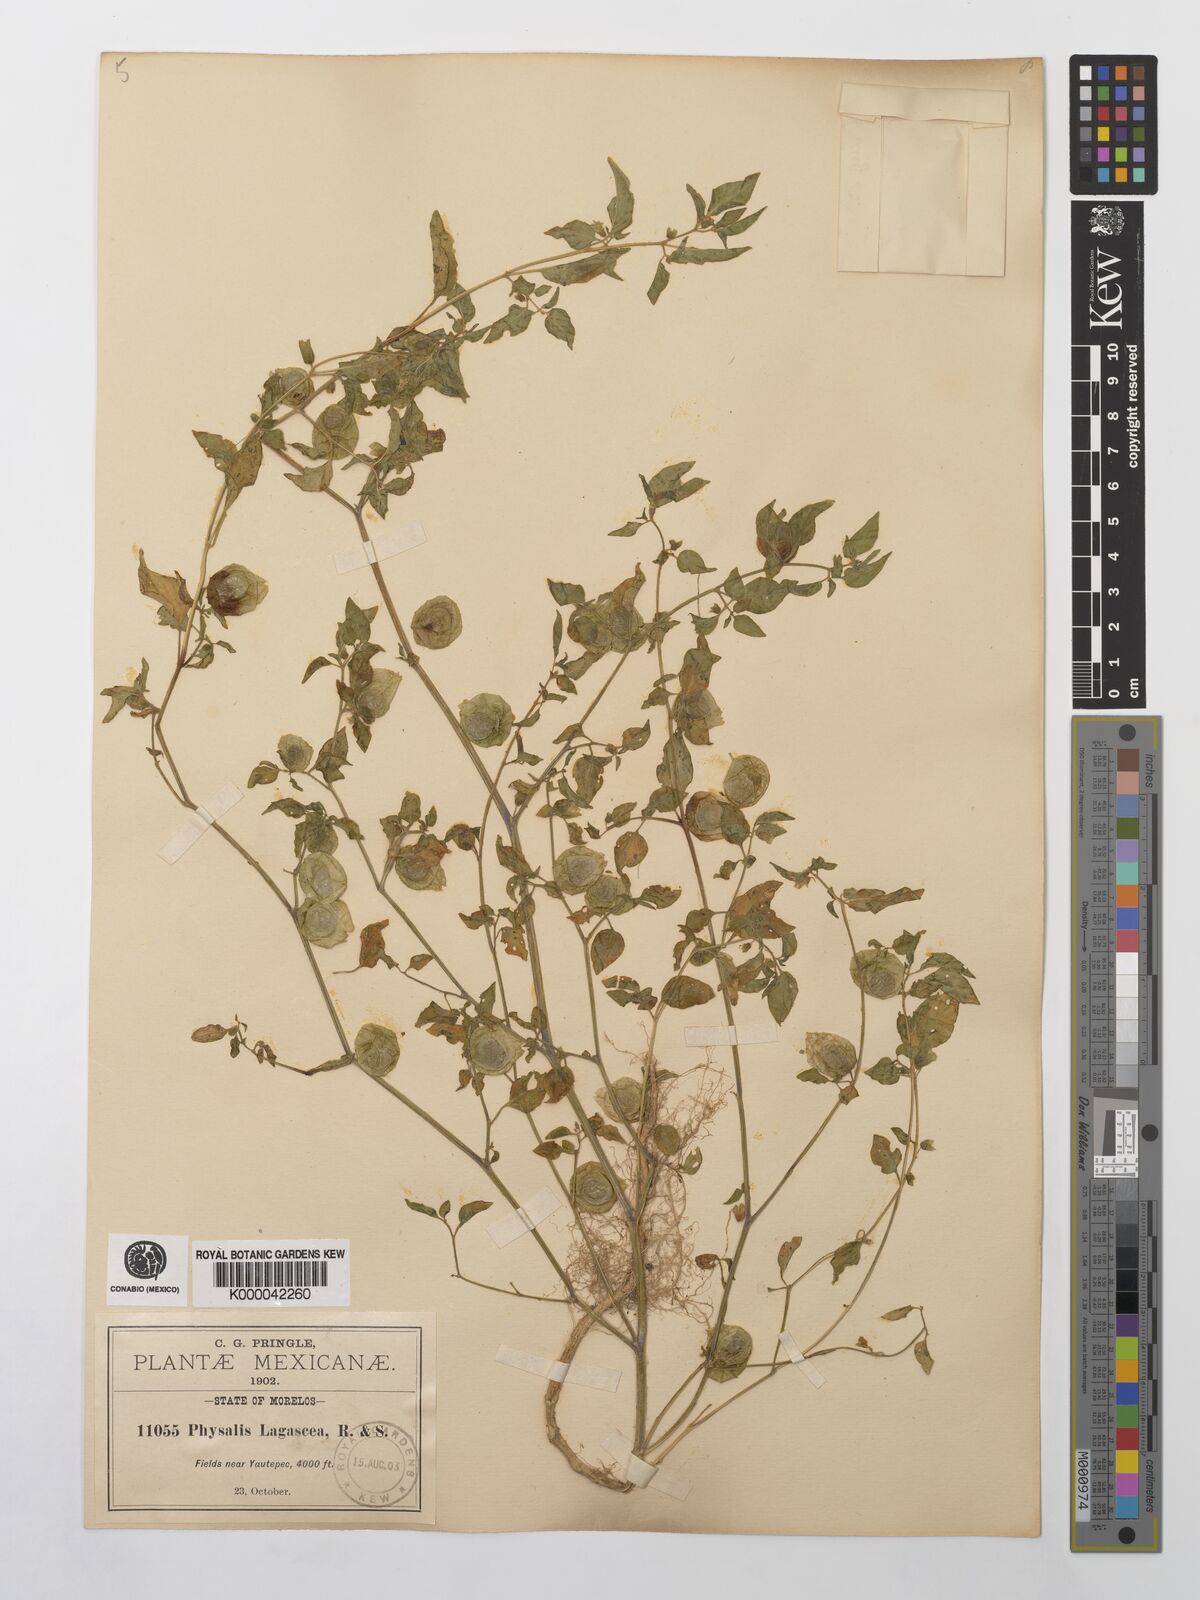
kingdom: Plantae
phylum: Tracheophyta
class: Magnoliopsida
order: Solanales
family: Solanaceae
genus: Physalis
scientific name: Physalis lagascae
